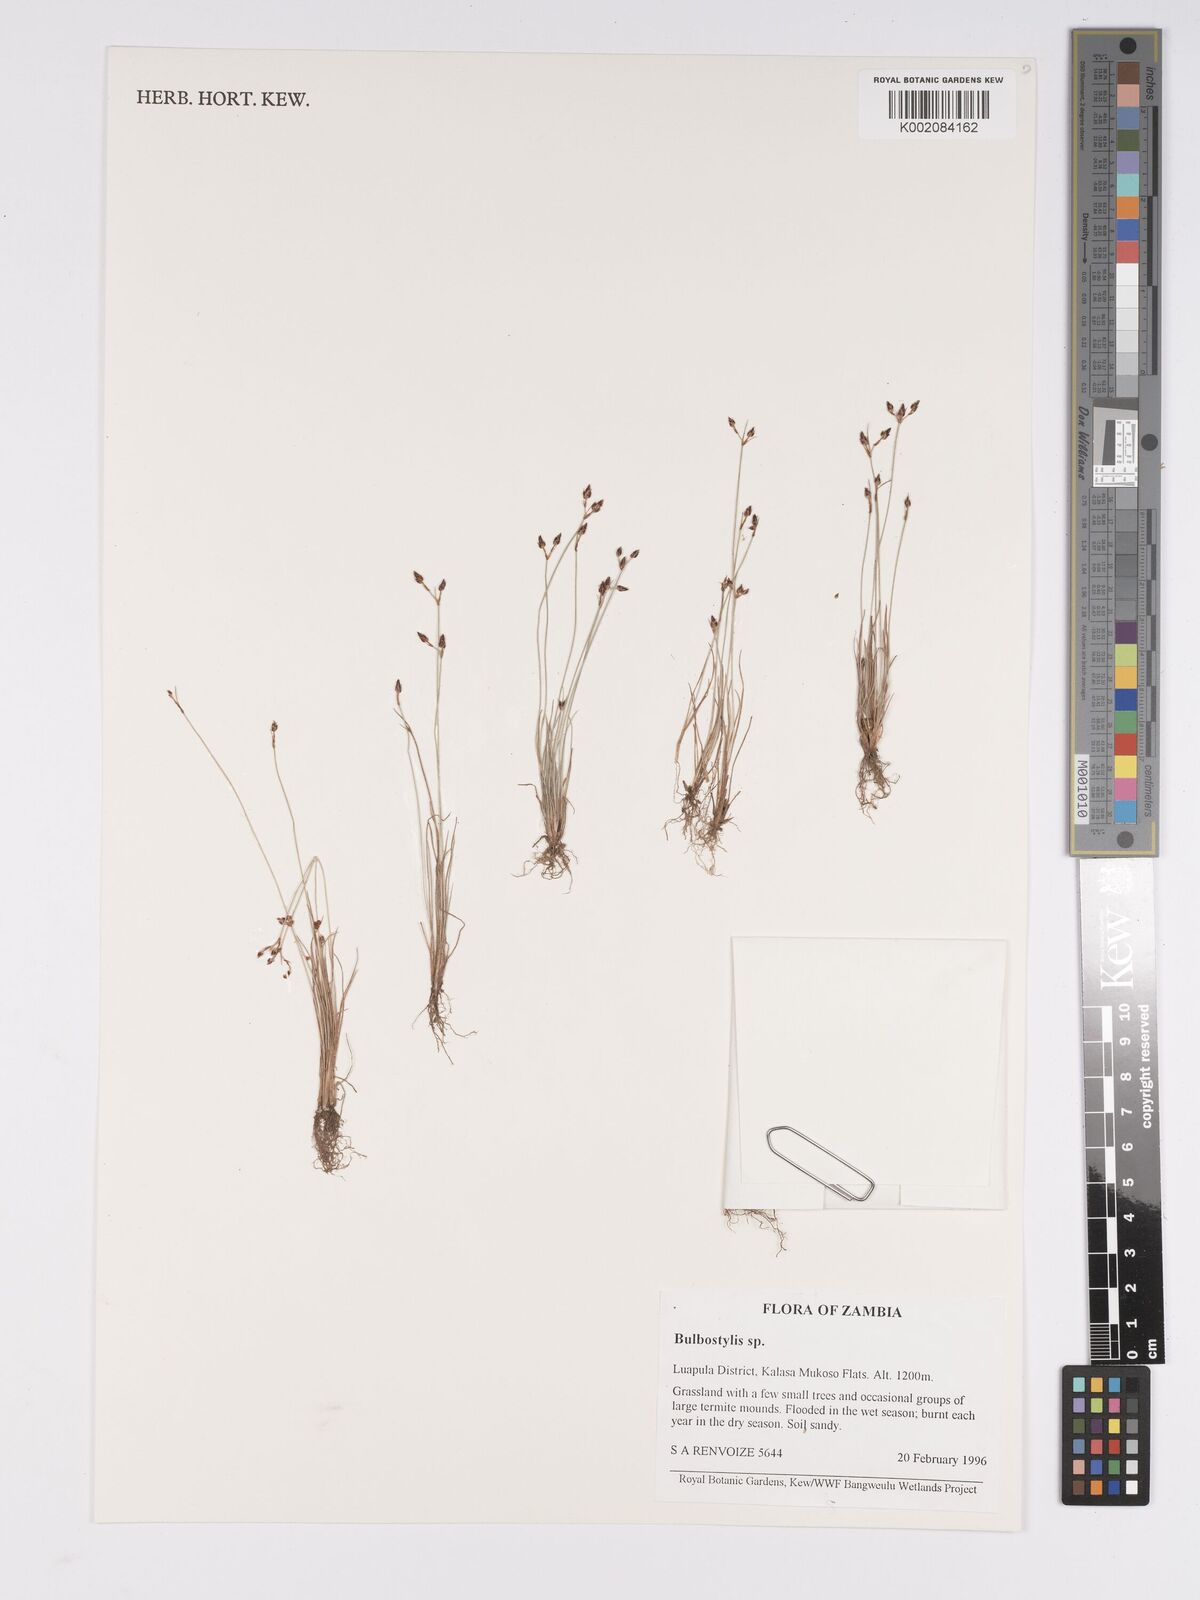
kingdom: Plantae
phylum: Tracheophyta
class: Liliopsida
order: Poales
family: Cyperaceae
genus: Bulbostylis
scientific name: Bulbostylis
